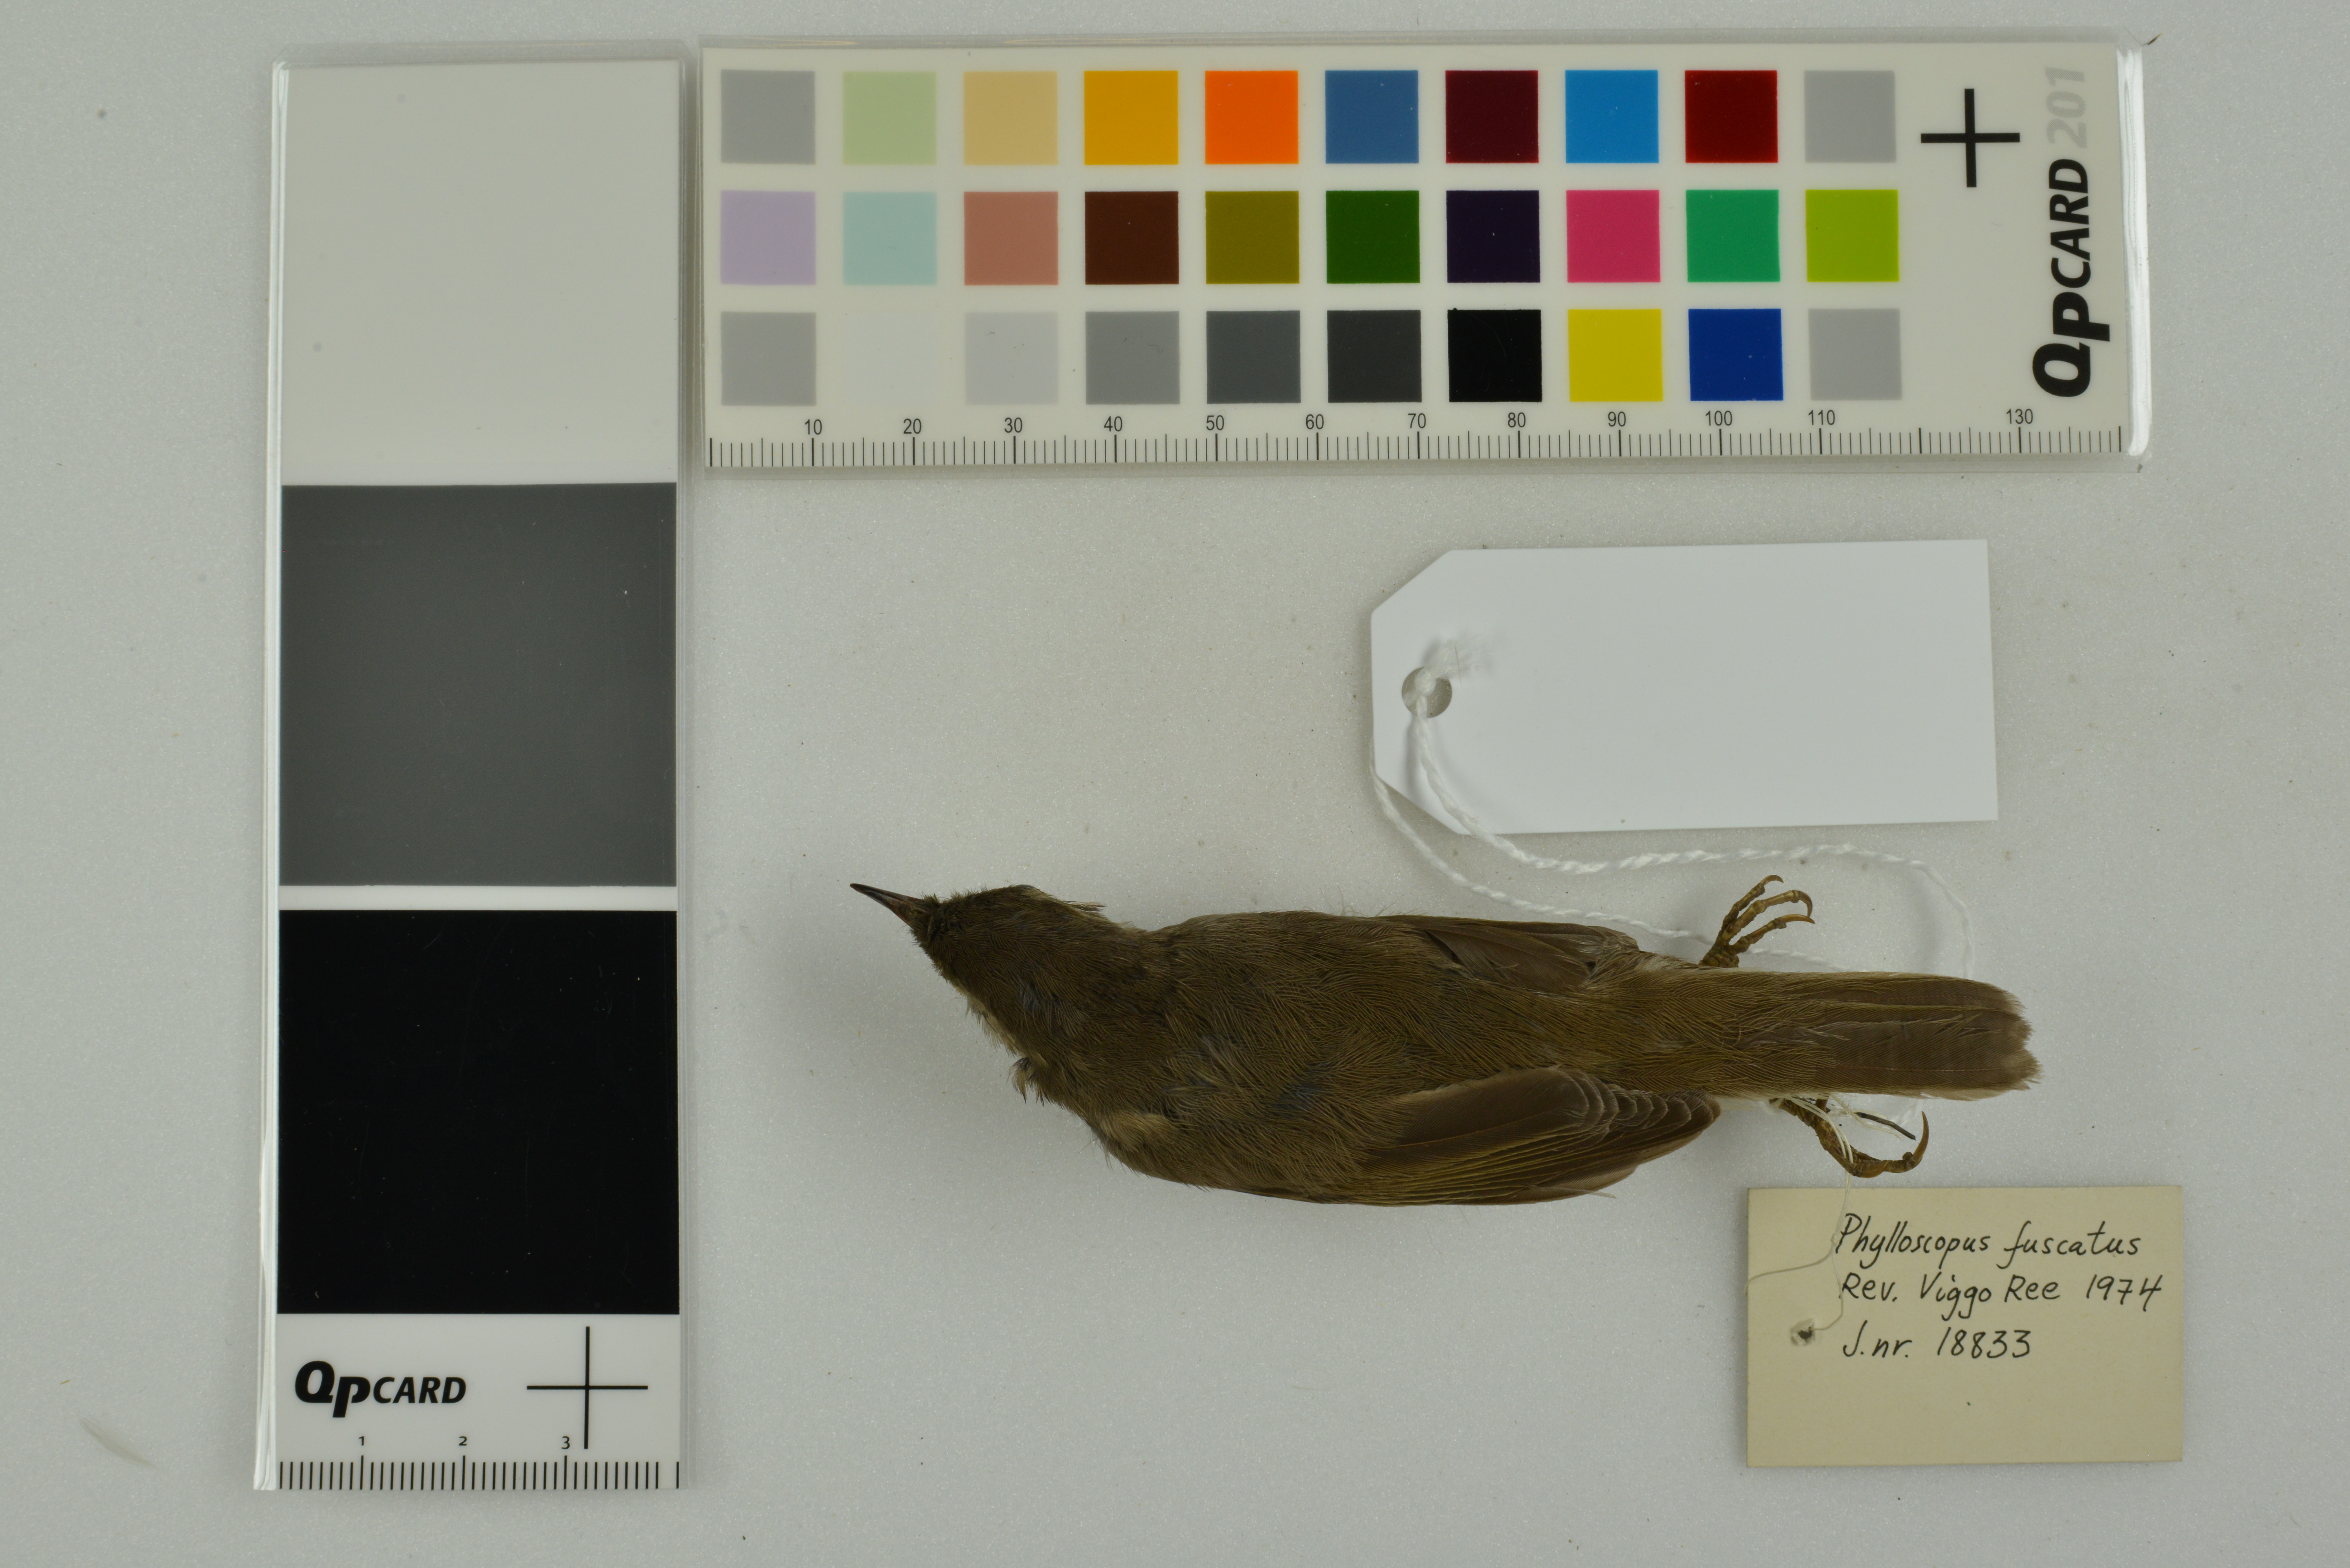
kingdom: Animalia
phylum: Chordata
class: Aves
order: Passeriformes
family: Phylloscopidae
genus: Phylloscopus
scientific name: Phylloscopus fuscatus
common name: Dusky warbler
